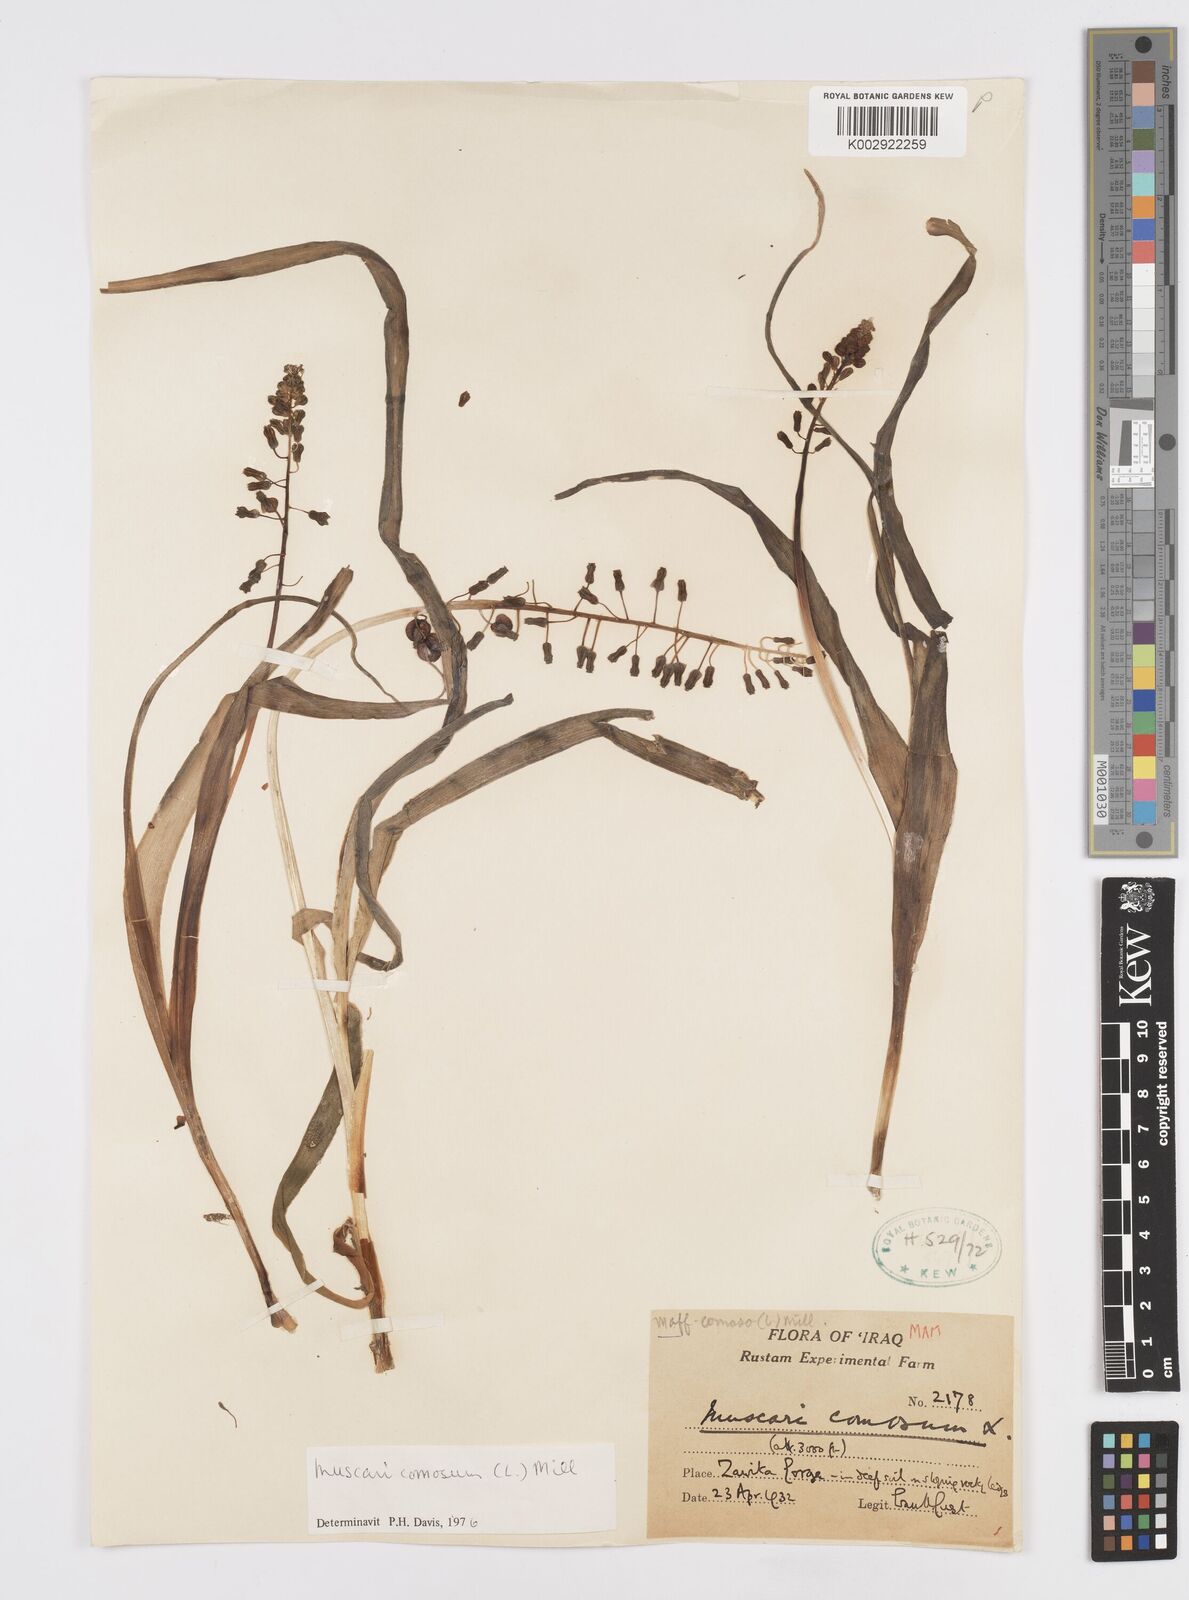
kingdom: Plantae
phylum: Tracheophyta
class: Liliopsida
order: Asparagales
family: Asparagaceae
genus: Muscari
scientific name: Muscari comosum
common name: Tassel hyacinth
